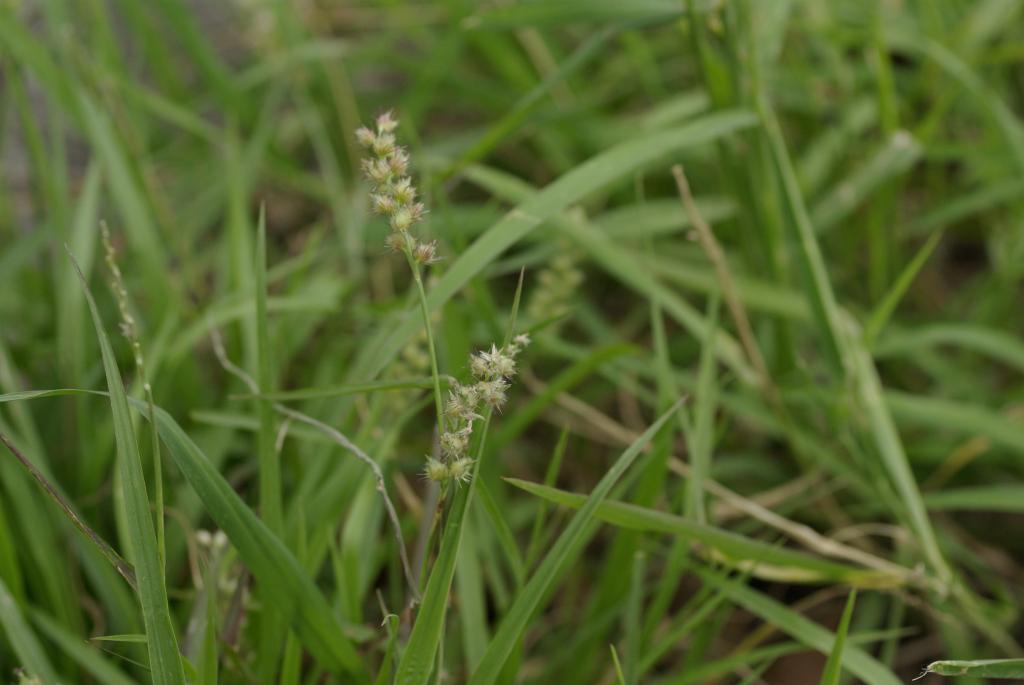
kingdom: Plantae
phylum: Tracheophyta
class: Liliopsida
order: Poales
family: Poaceae
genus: Cenchrus
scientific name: Cenchrus echinatus
